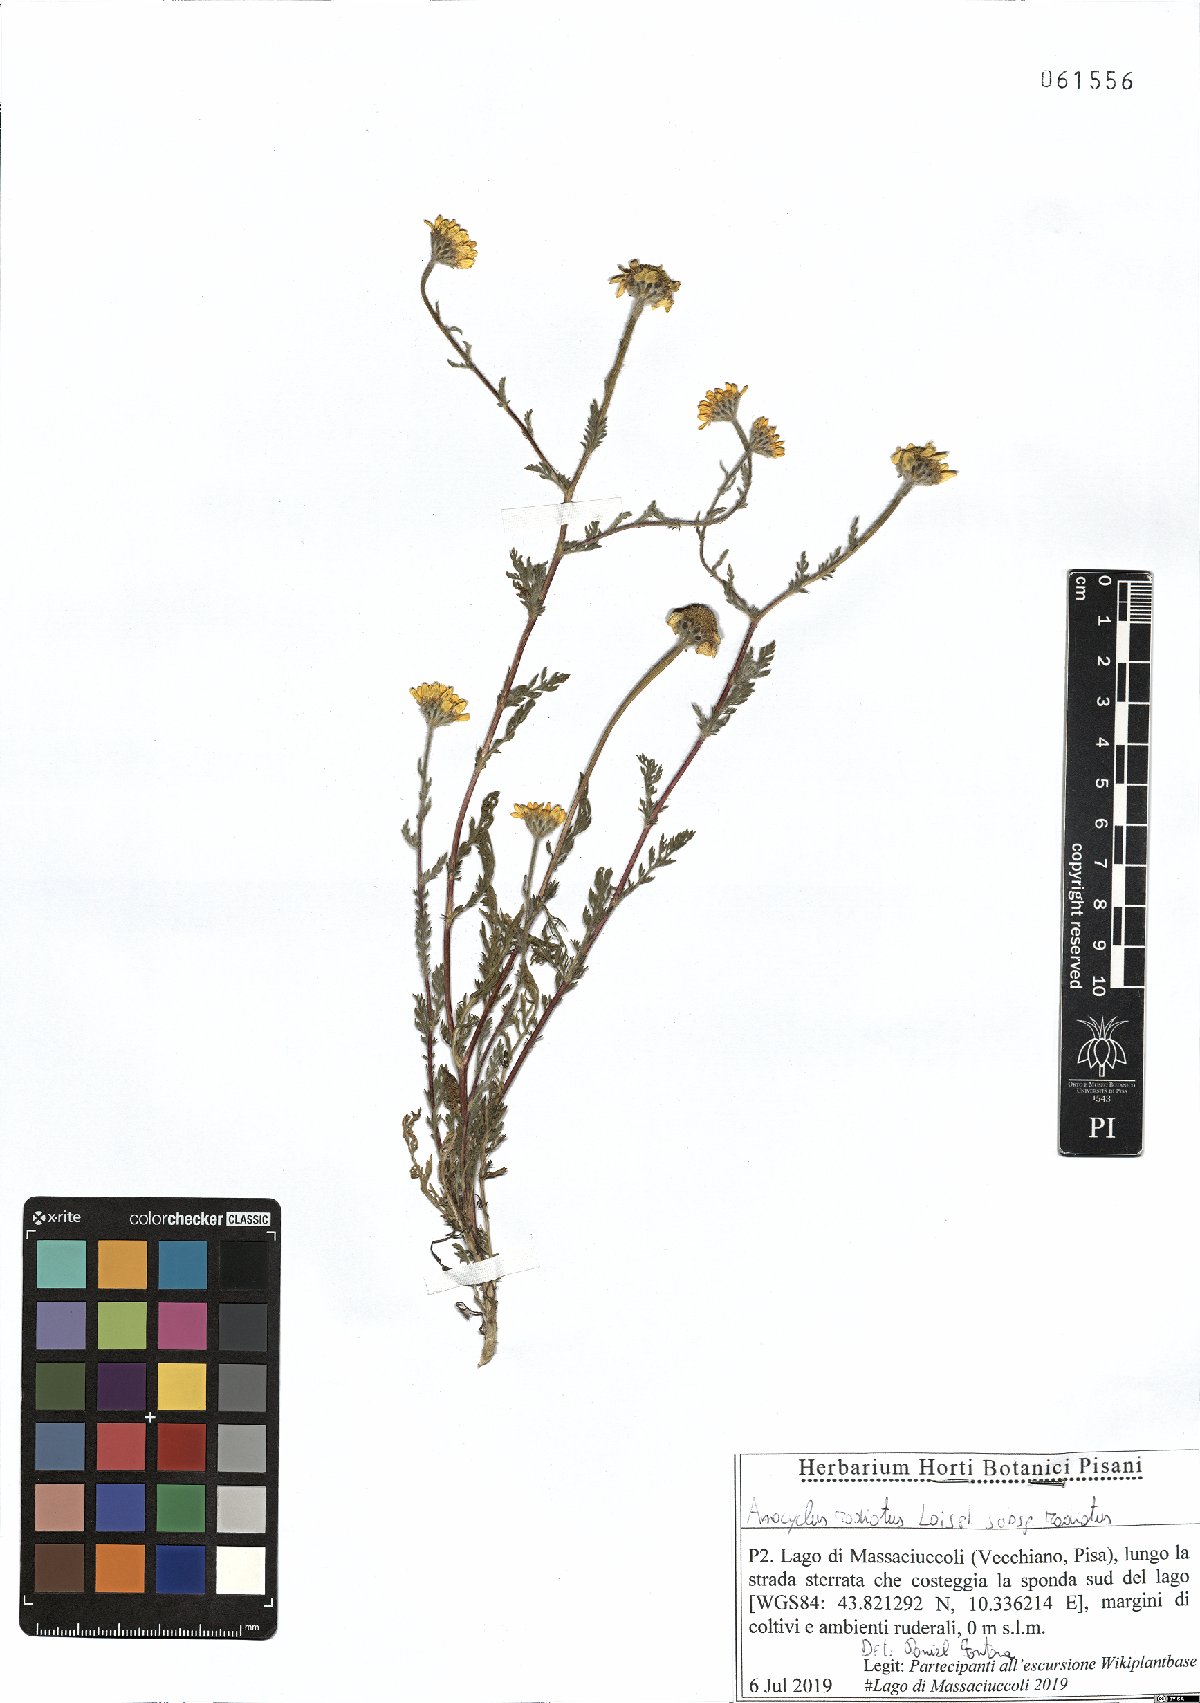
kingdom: Plantae
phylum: Tracheophyta
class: Magnoliopsida
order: Asterales
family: Asteraceae
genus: Anacyclus
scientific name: Anacyclus radiatus
